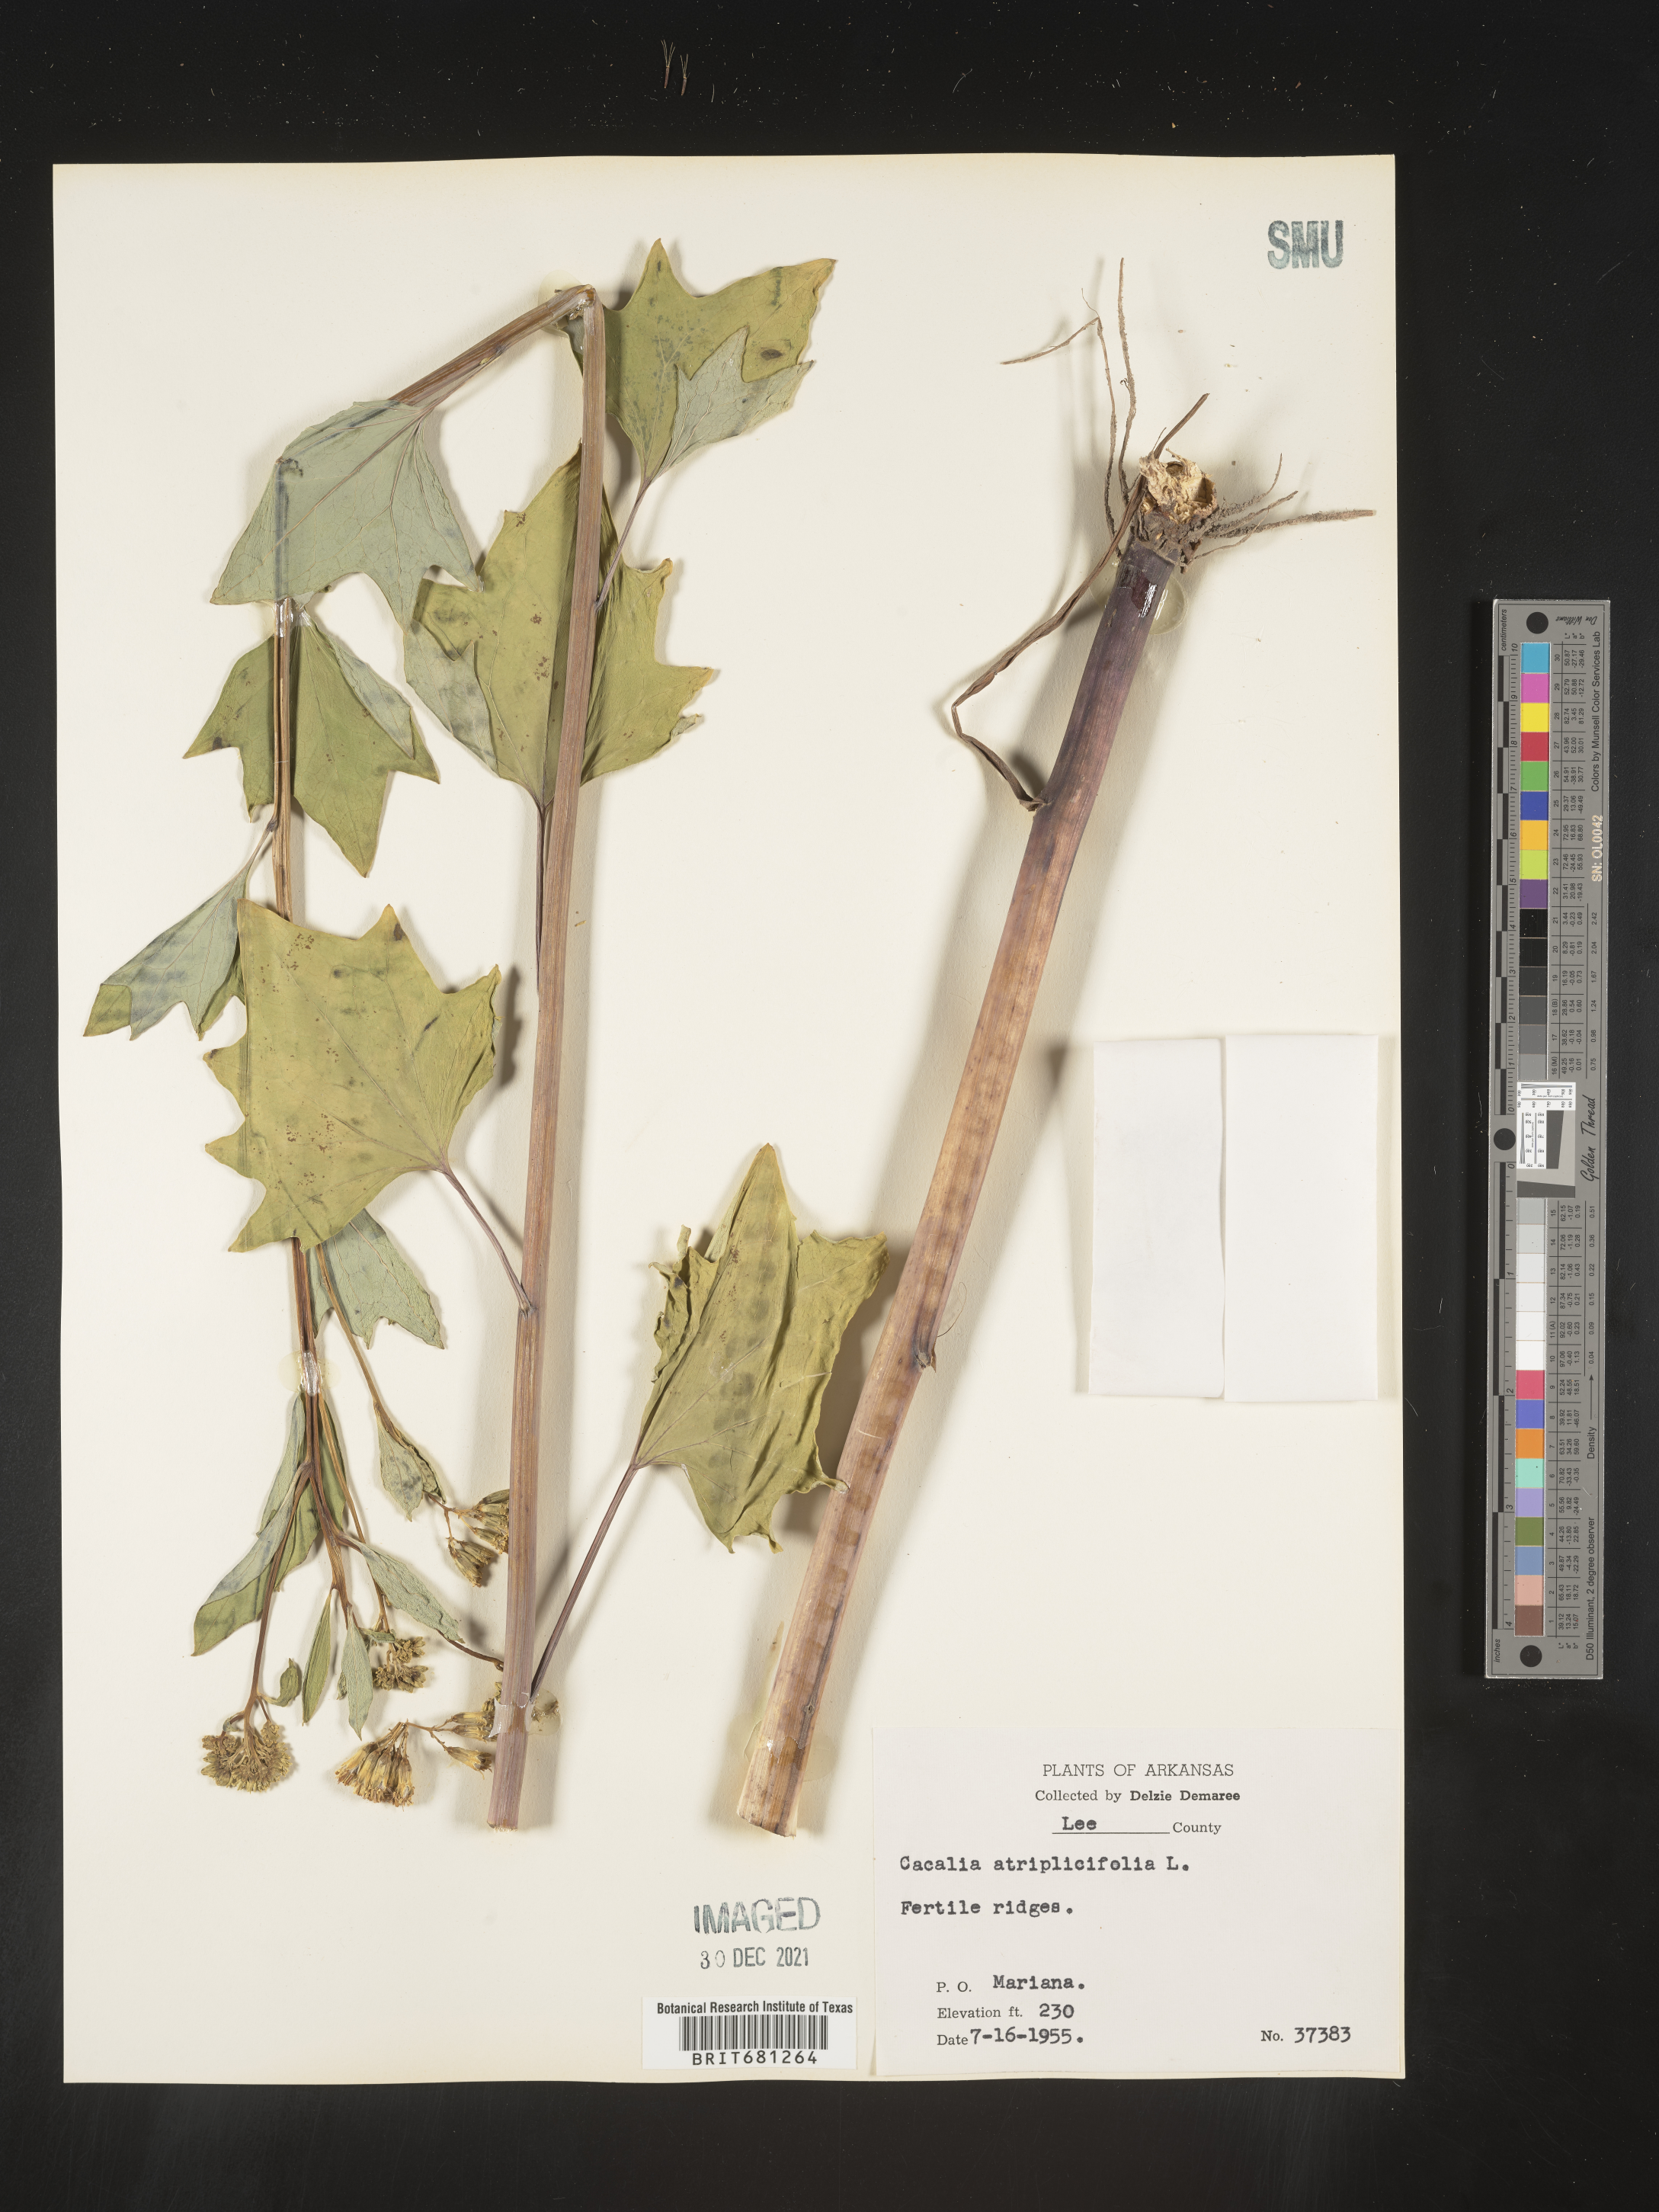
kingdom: Plantae
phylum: Tracheophyta
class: Magnoliopsida
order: Asterales
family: Asteraceae
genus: Arnoglossum
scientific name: Arnoglossum atriplicifolium
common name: Pale indian-plantain
